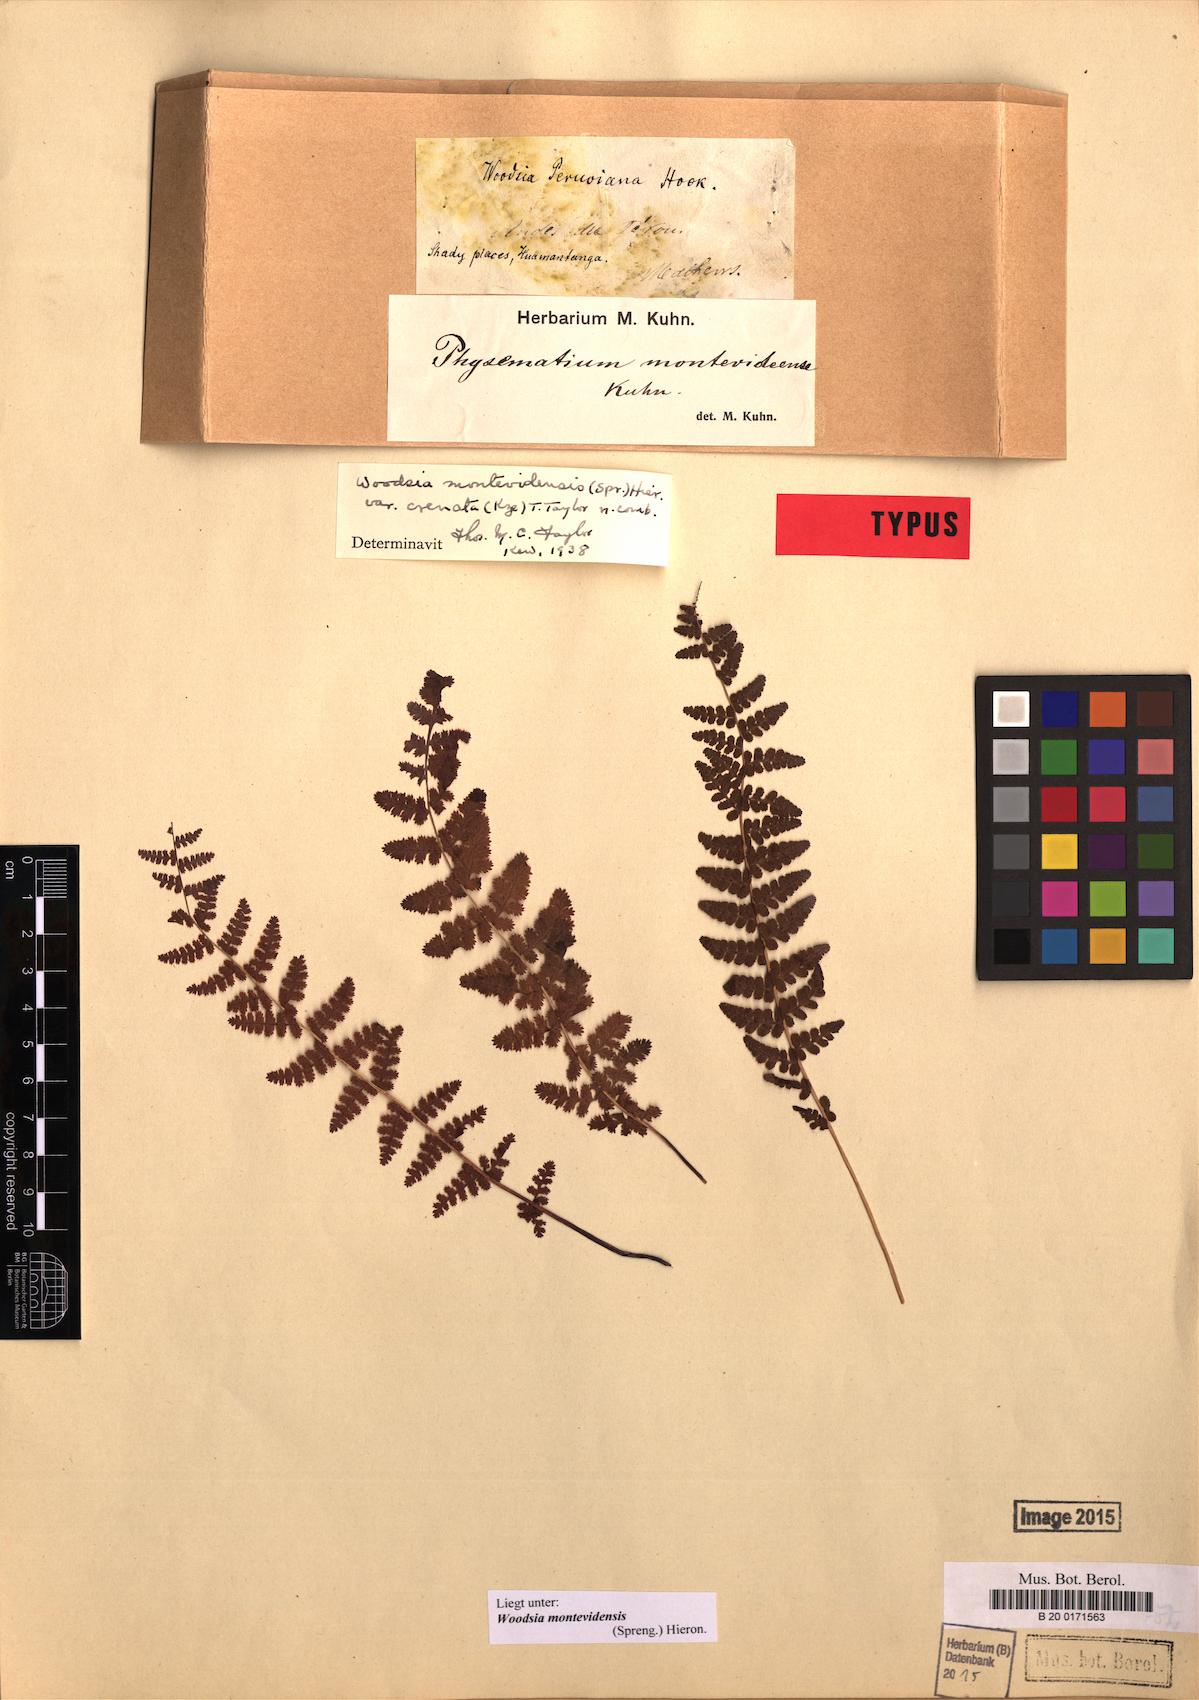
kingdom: Plantae
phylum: Tracheophyta
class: Polypodiopsida
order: Polypodiales
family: Woodsiaceae
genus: Physematium
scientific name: Physematium montevidense
